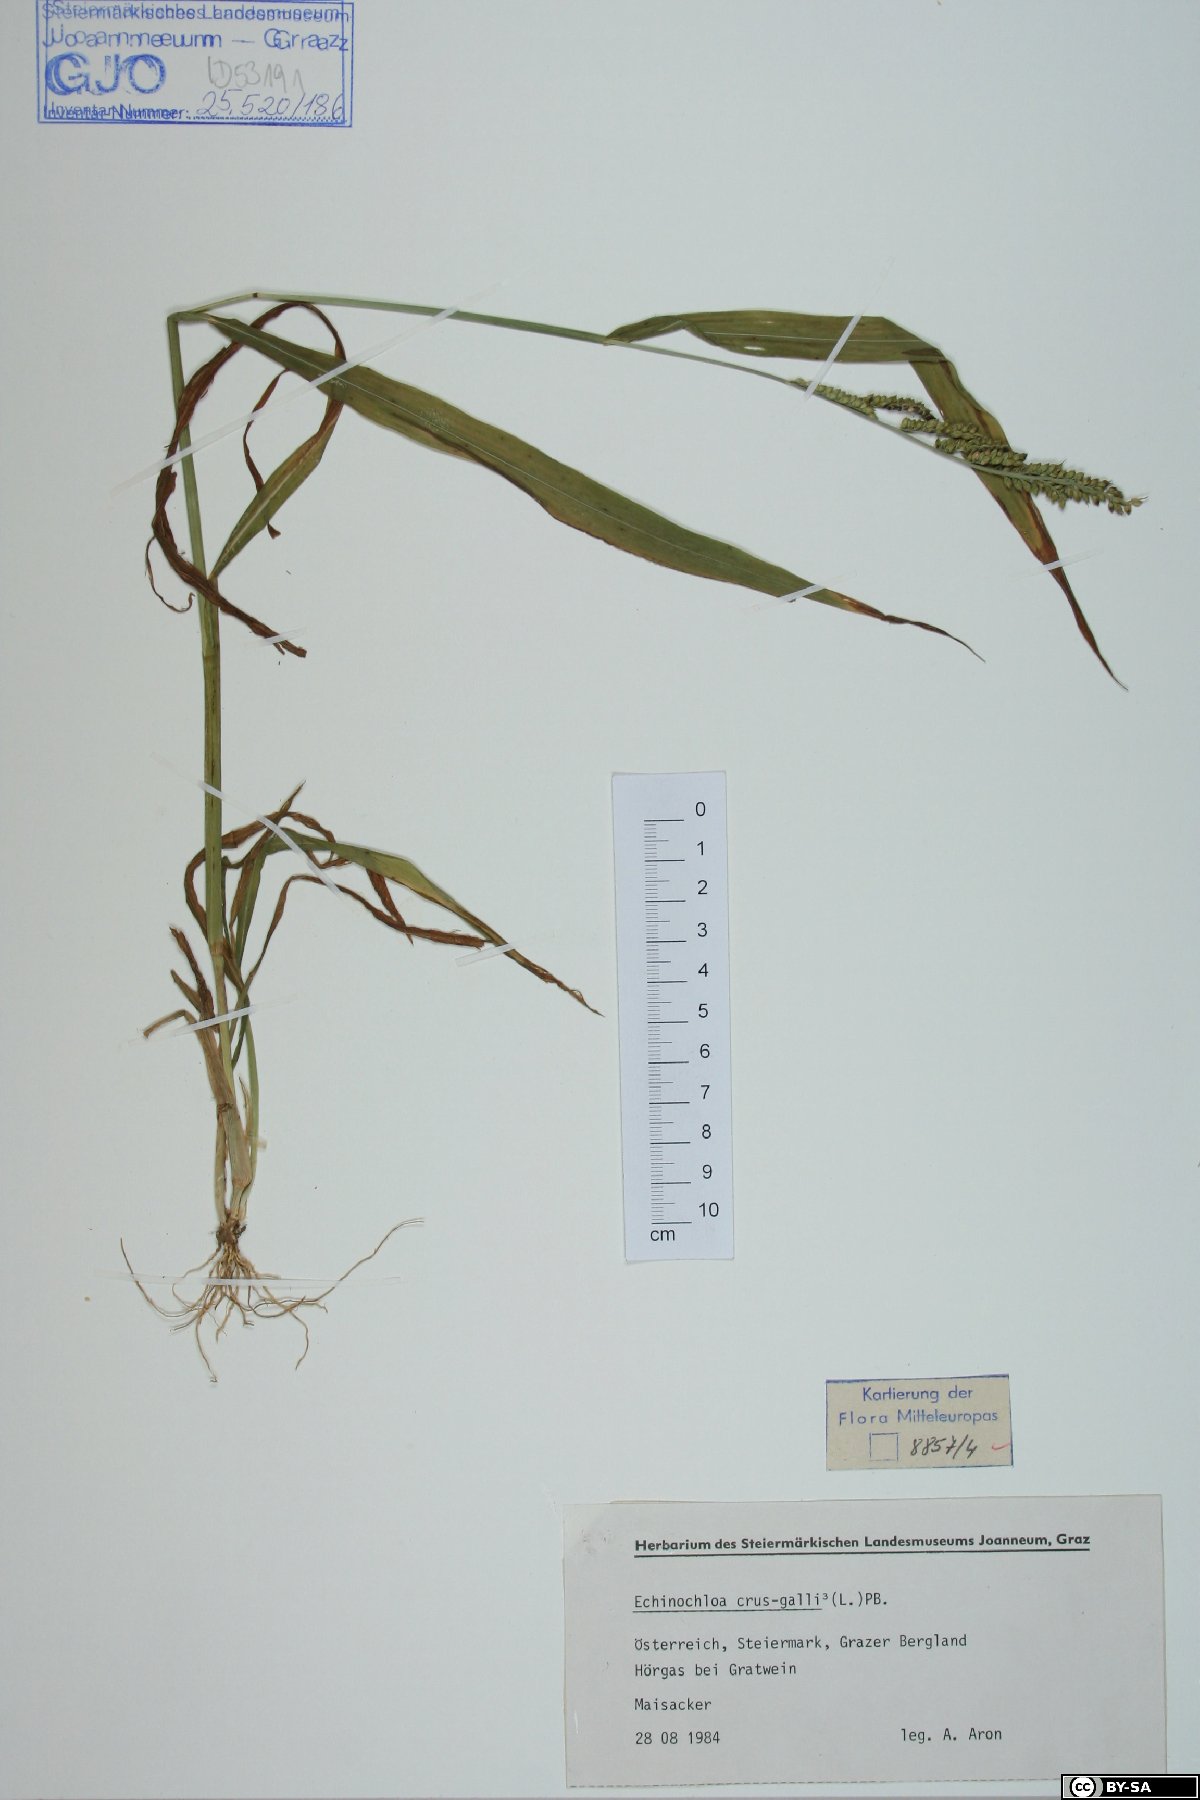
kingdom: Plantae
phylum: Tracheophyta
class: Liliopsida
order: Poales
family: Poaceae
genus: Echinochloa
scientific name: Echinochloa crus-galli
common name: Cockspur
